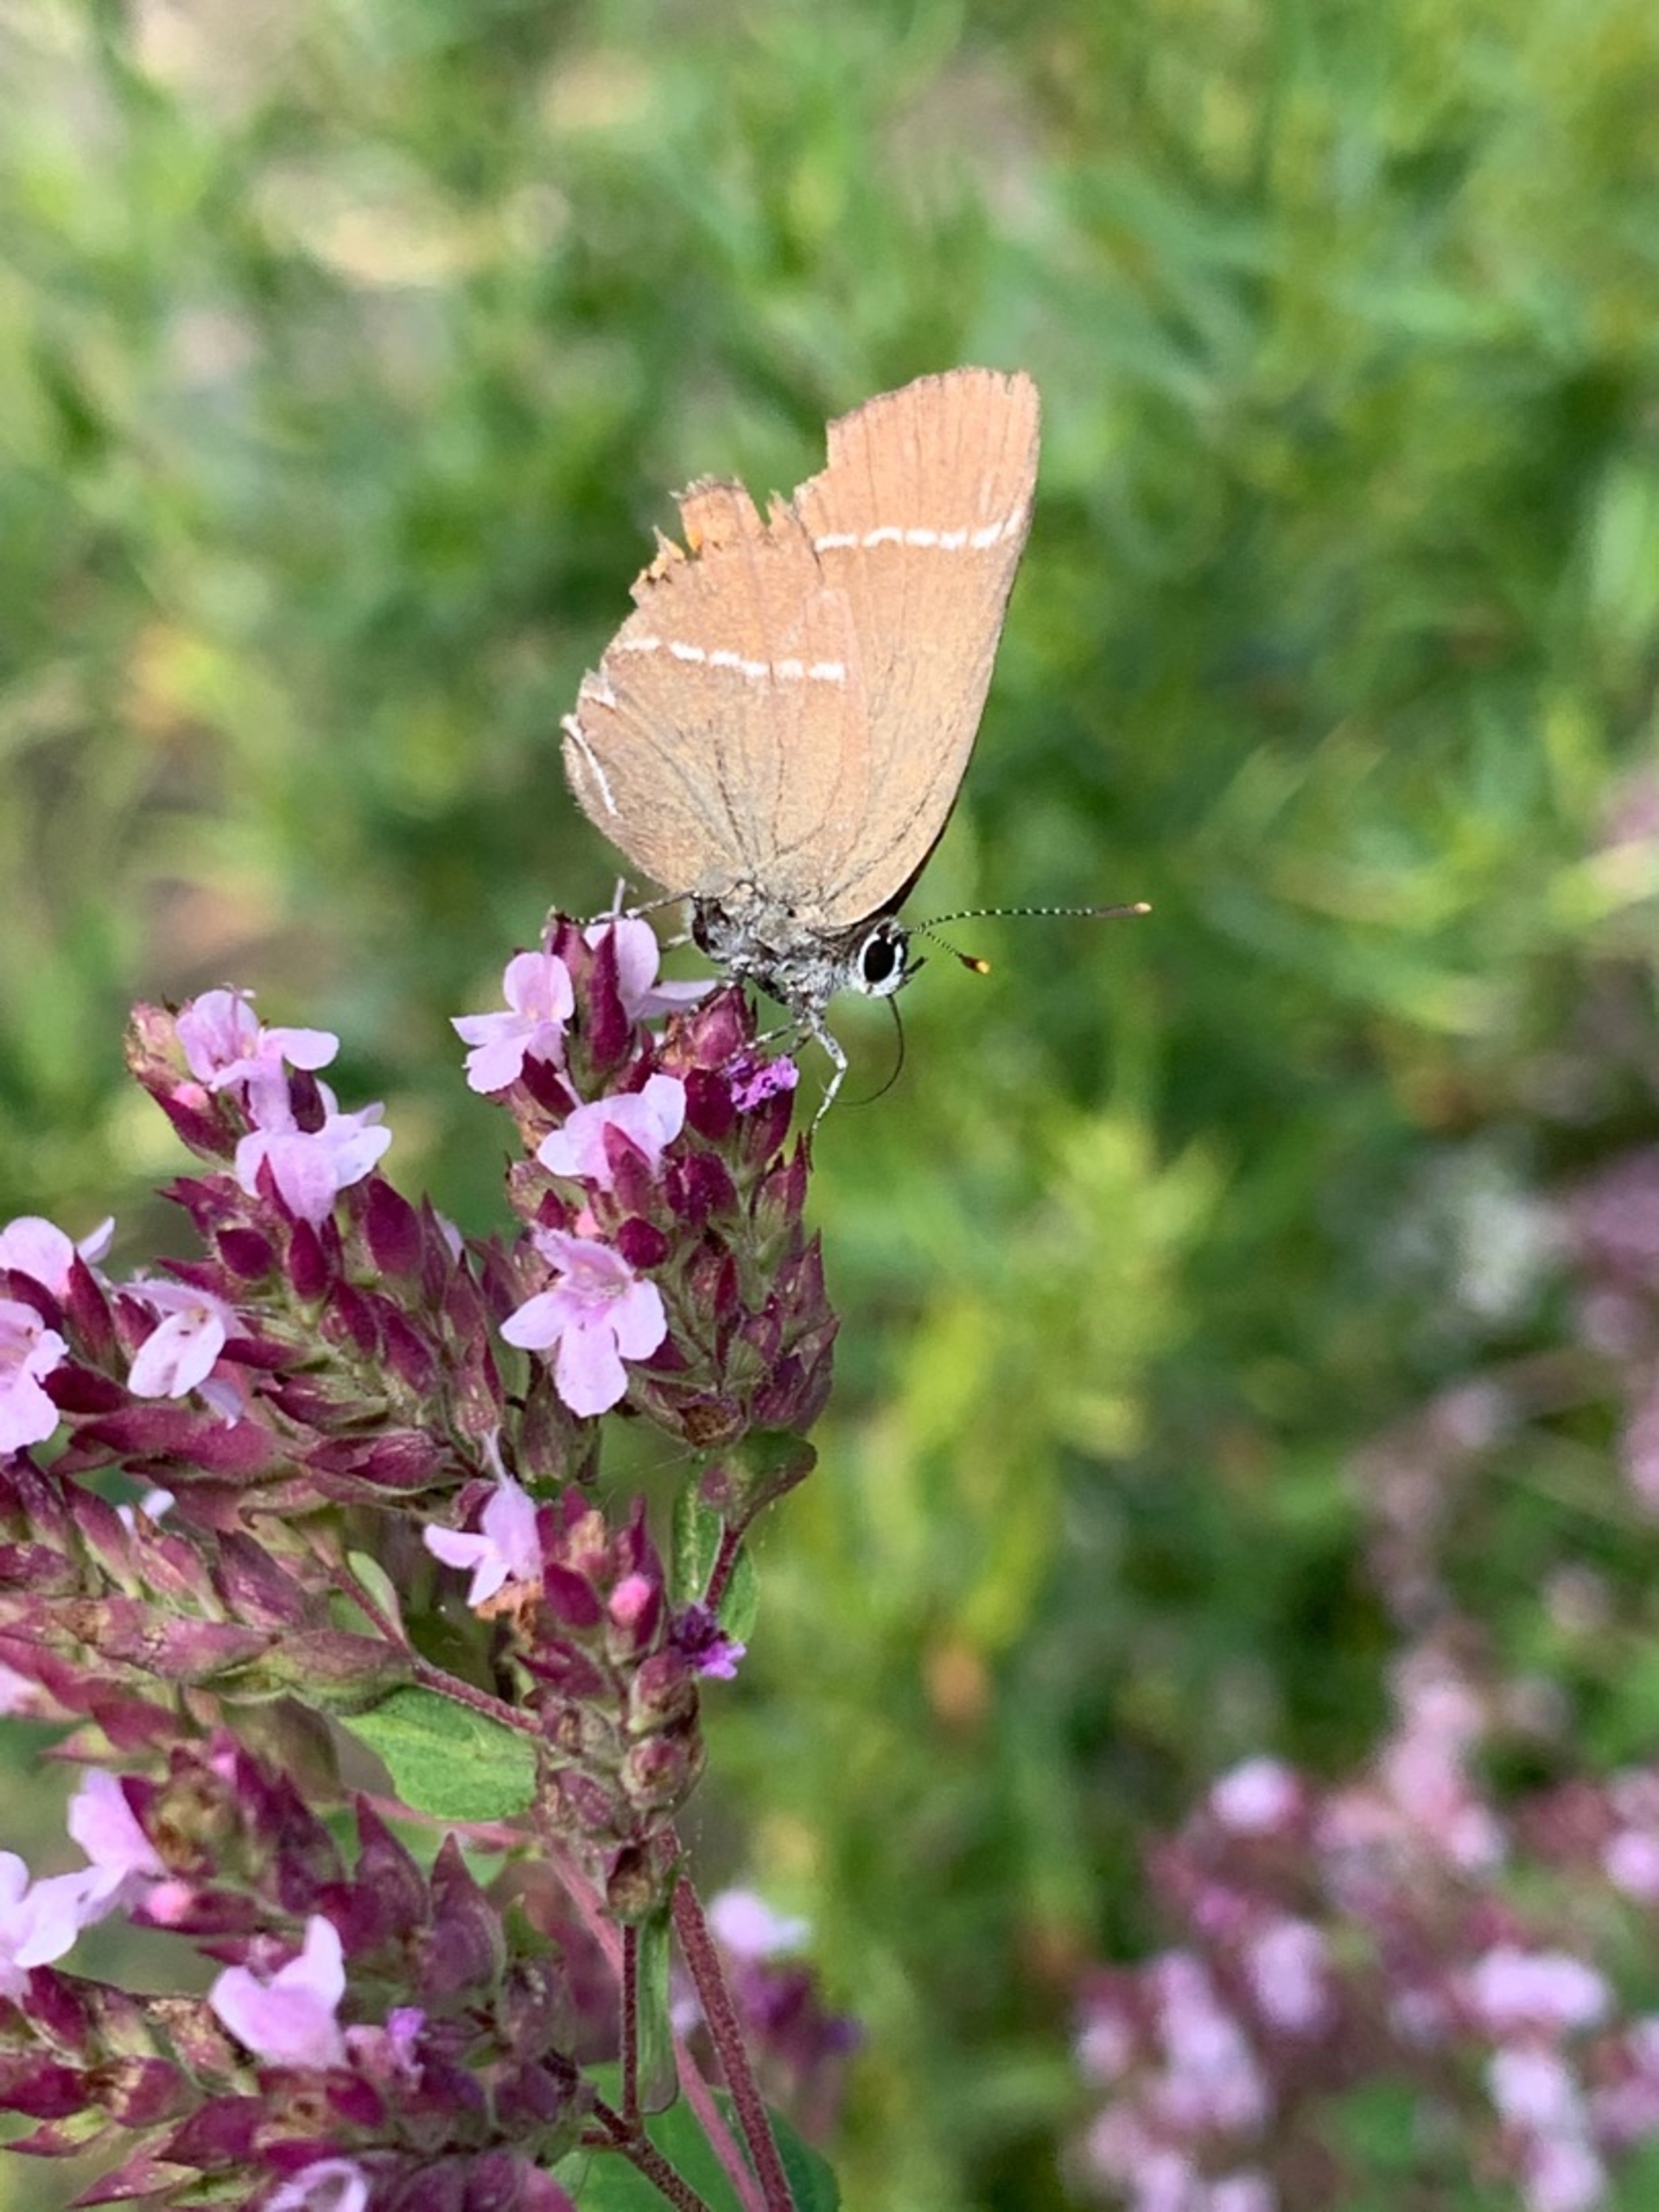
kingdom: Animalia
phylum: Arthropoda
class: Insecta
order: Lepidoptera
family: Lycaenidae
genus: Satyrium
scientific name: Satyrium w-album
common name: Det hvide W
